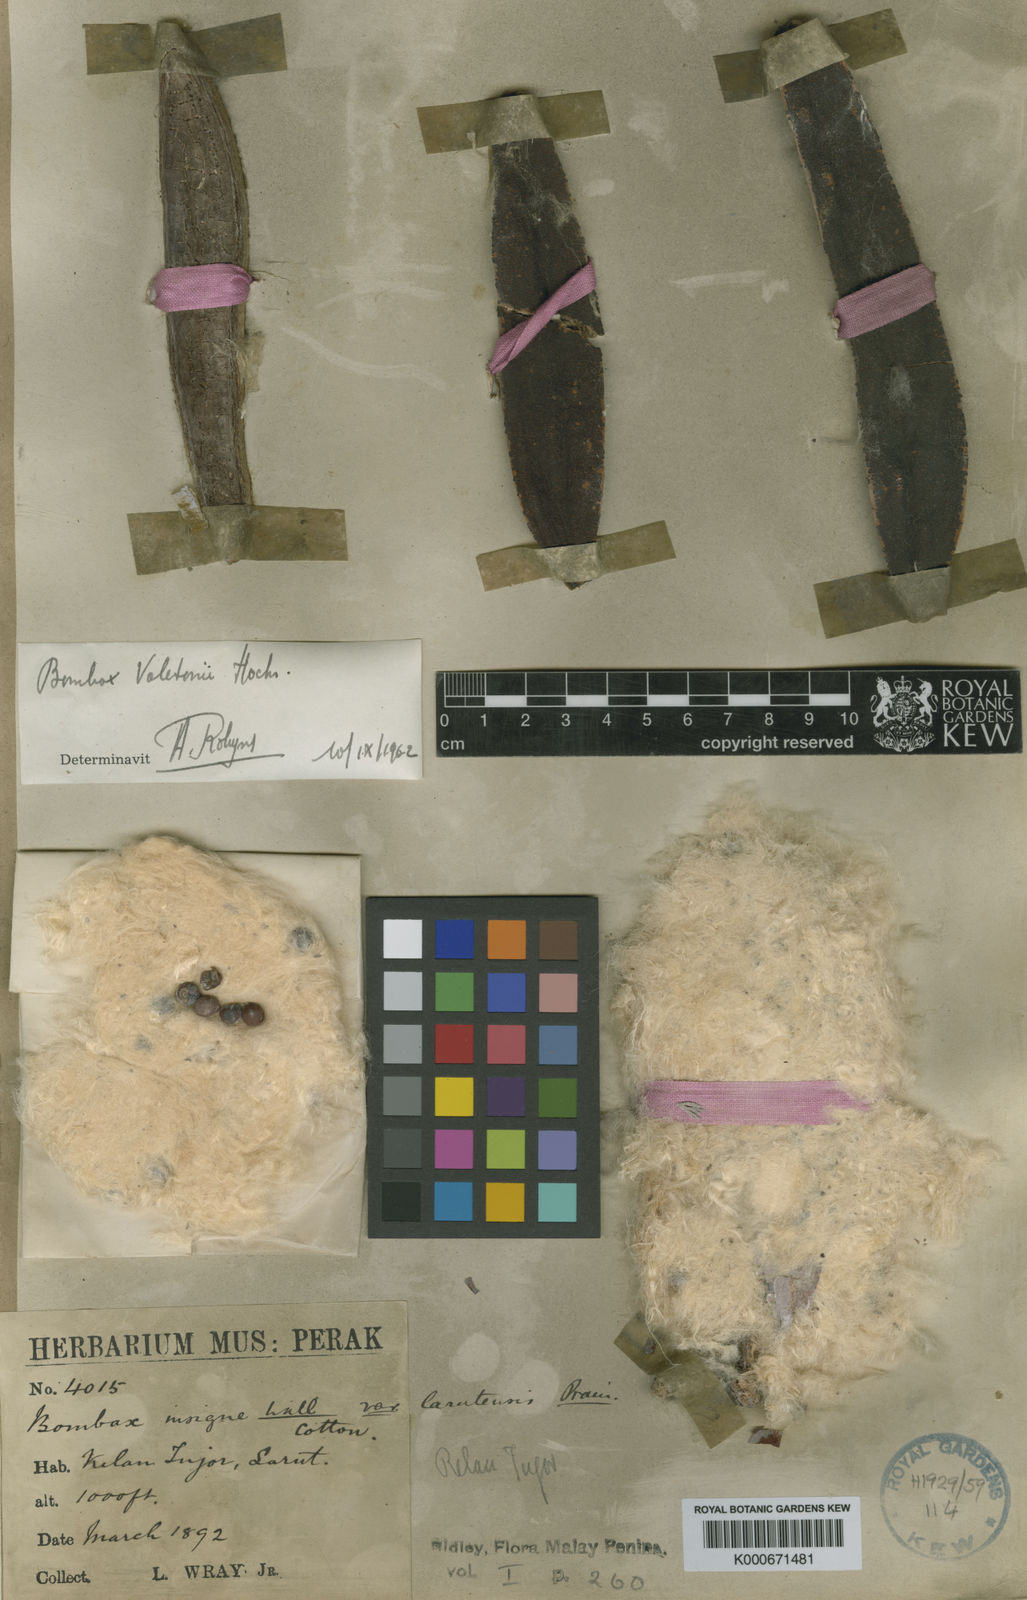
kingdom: Plantae
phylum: Tracheophyta
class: Magnoliopsida
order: Malvales
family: Malvaceae
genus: Bombax
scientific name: Bombax anceps
